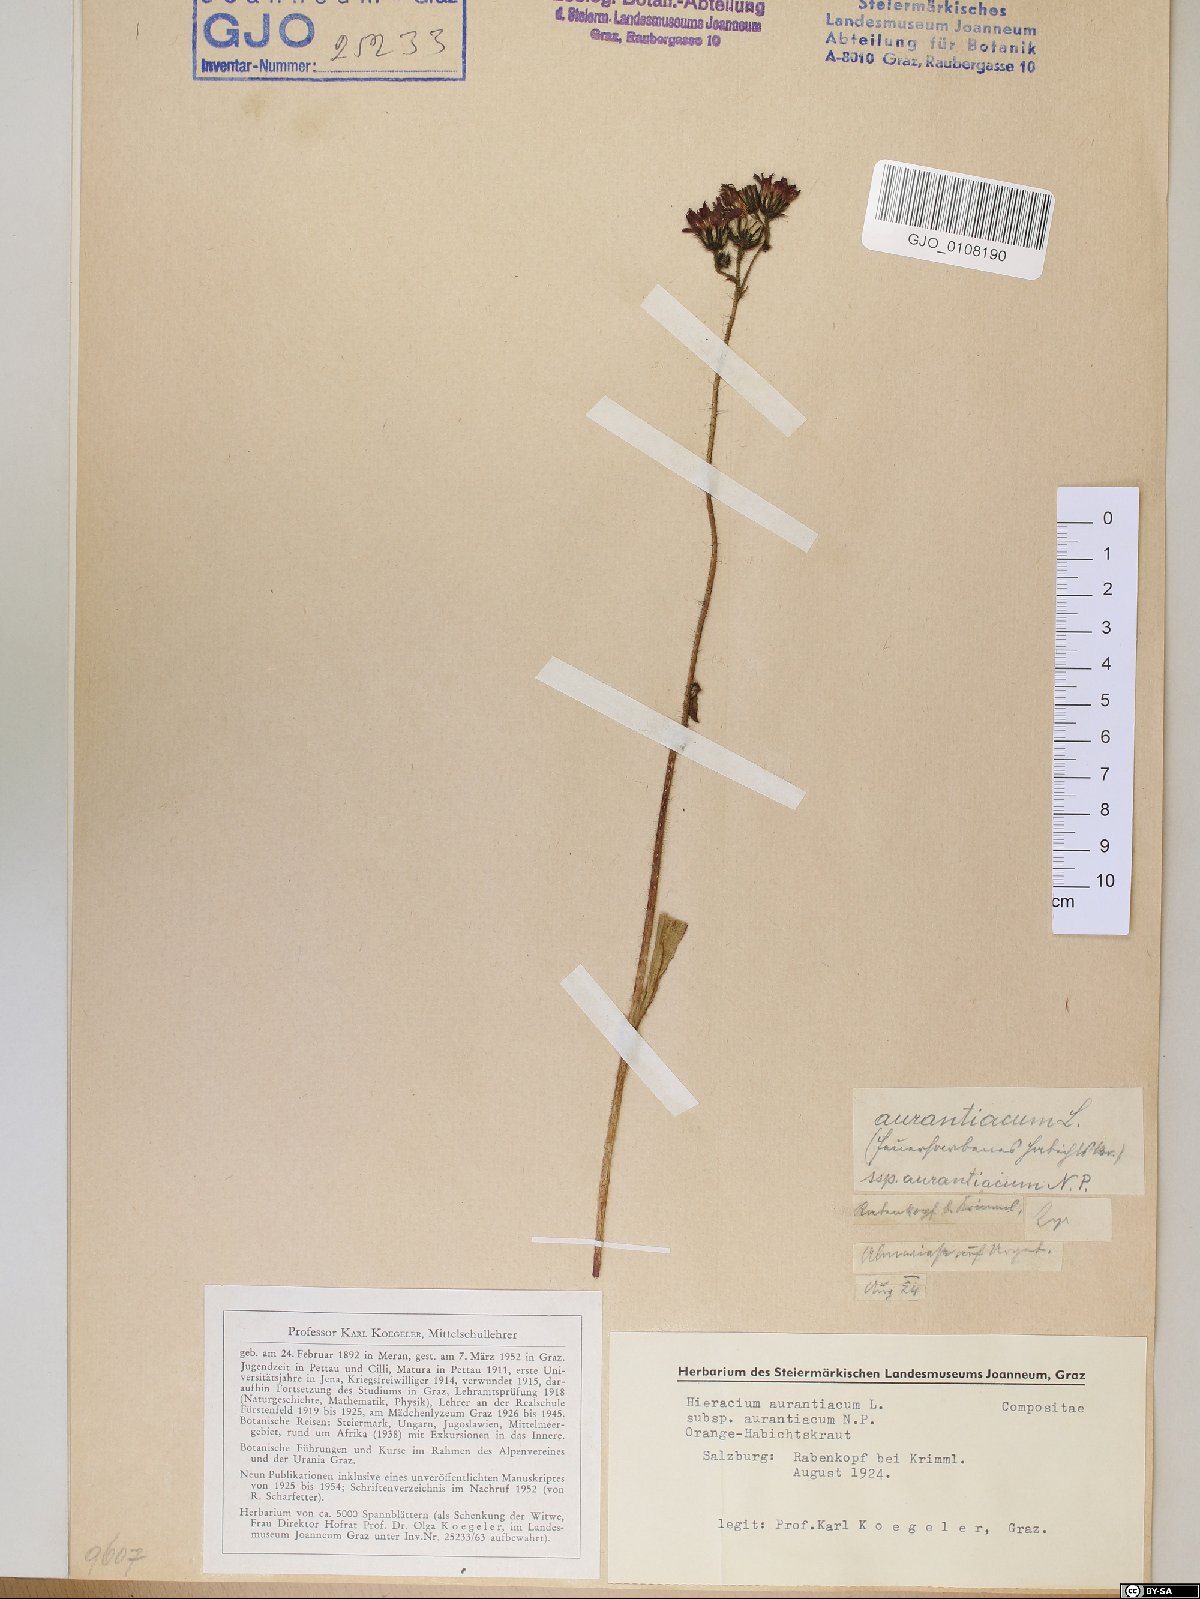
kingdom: Plantae
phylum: Tracheophyta
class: Magnoliopsida
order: Asterales
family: Asteraceae
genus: Pilosella
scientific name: Pilosella aurantiaca
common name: Fox-and-cubs
